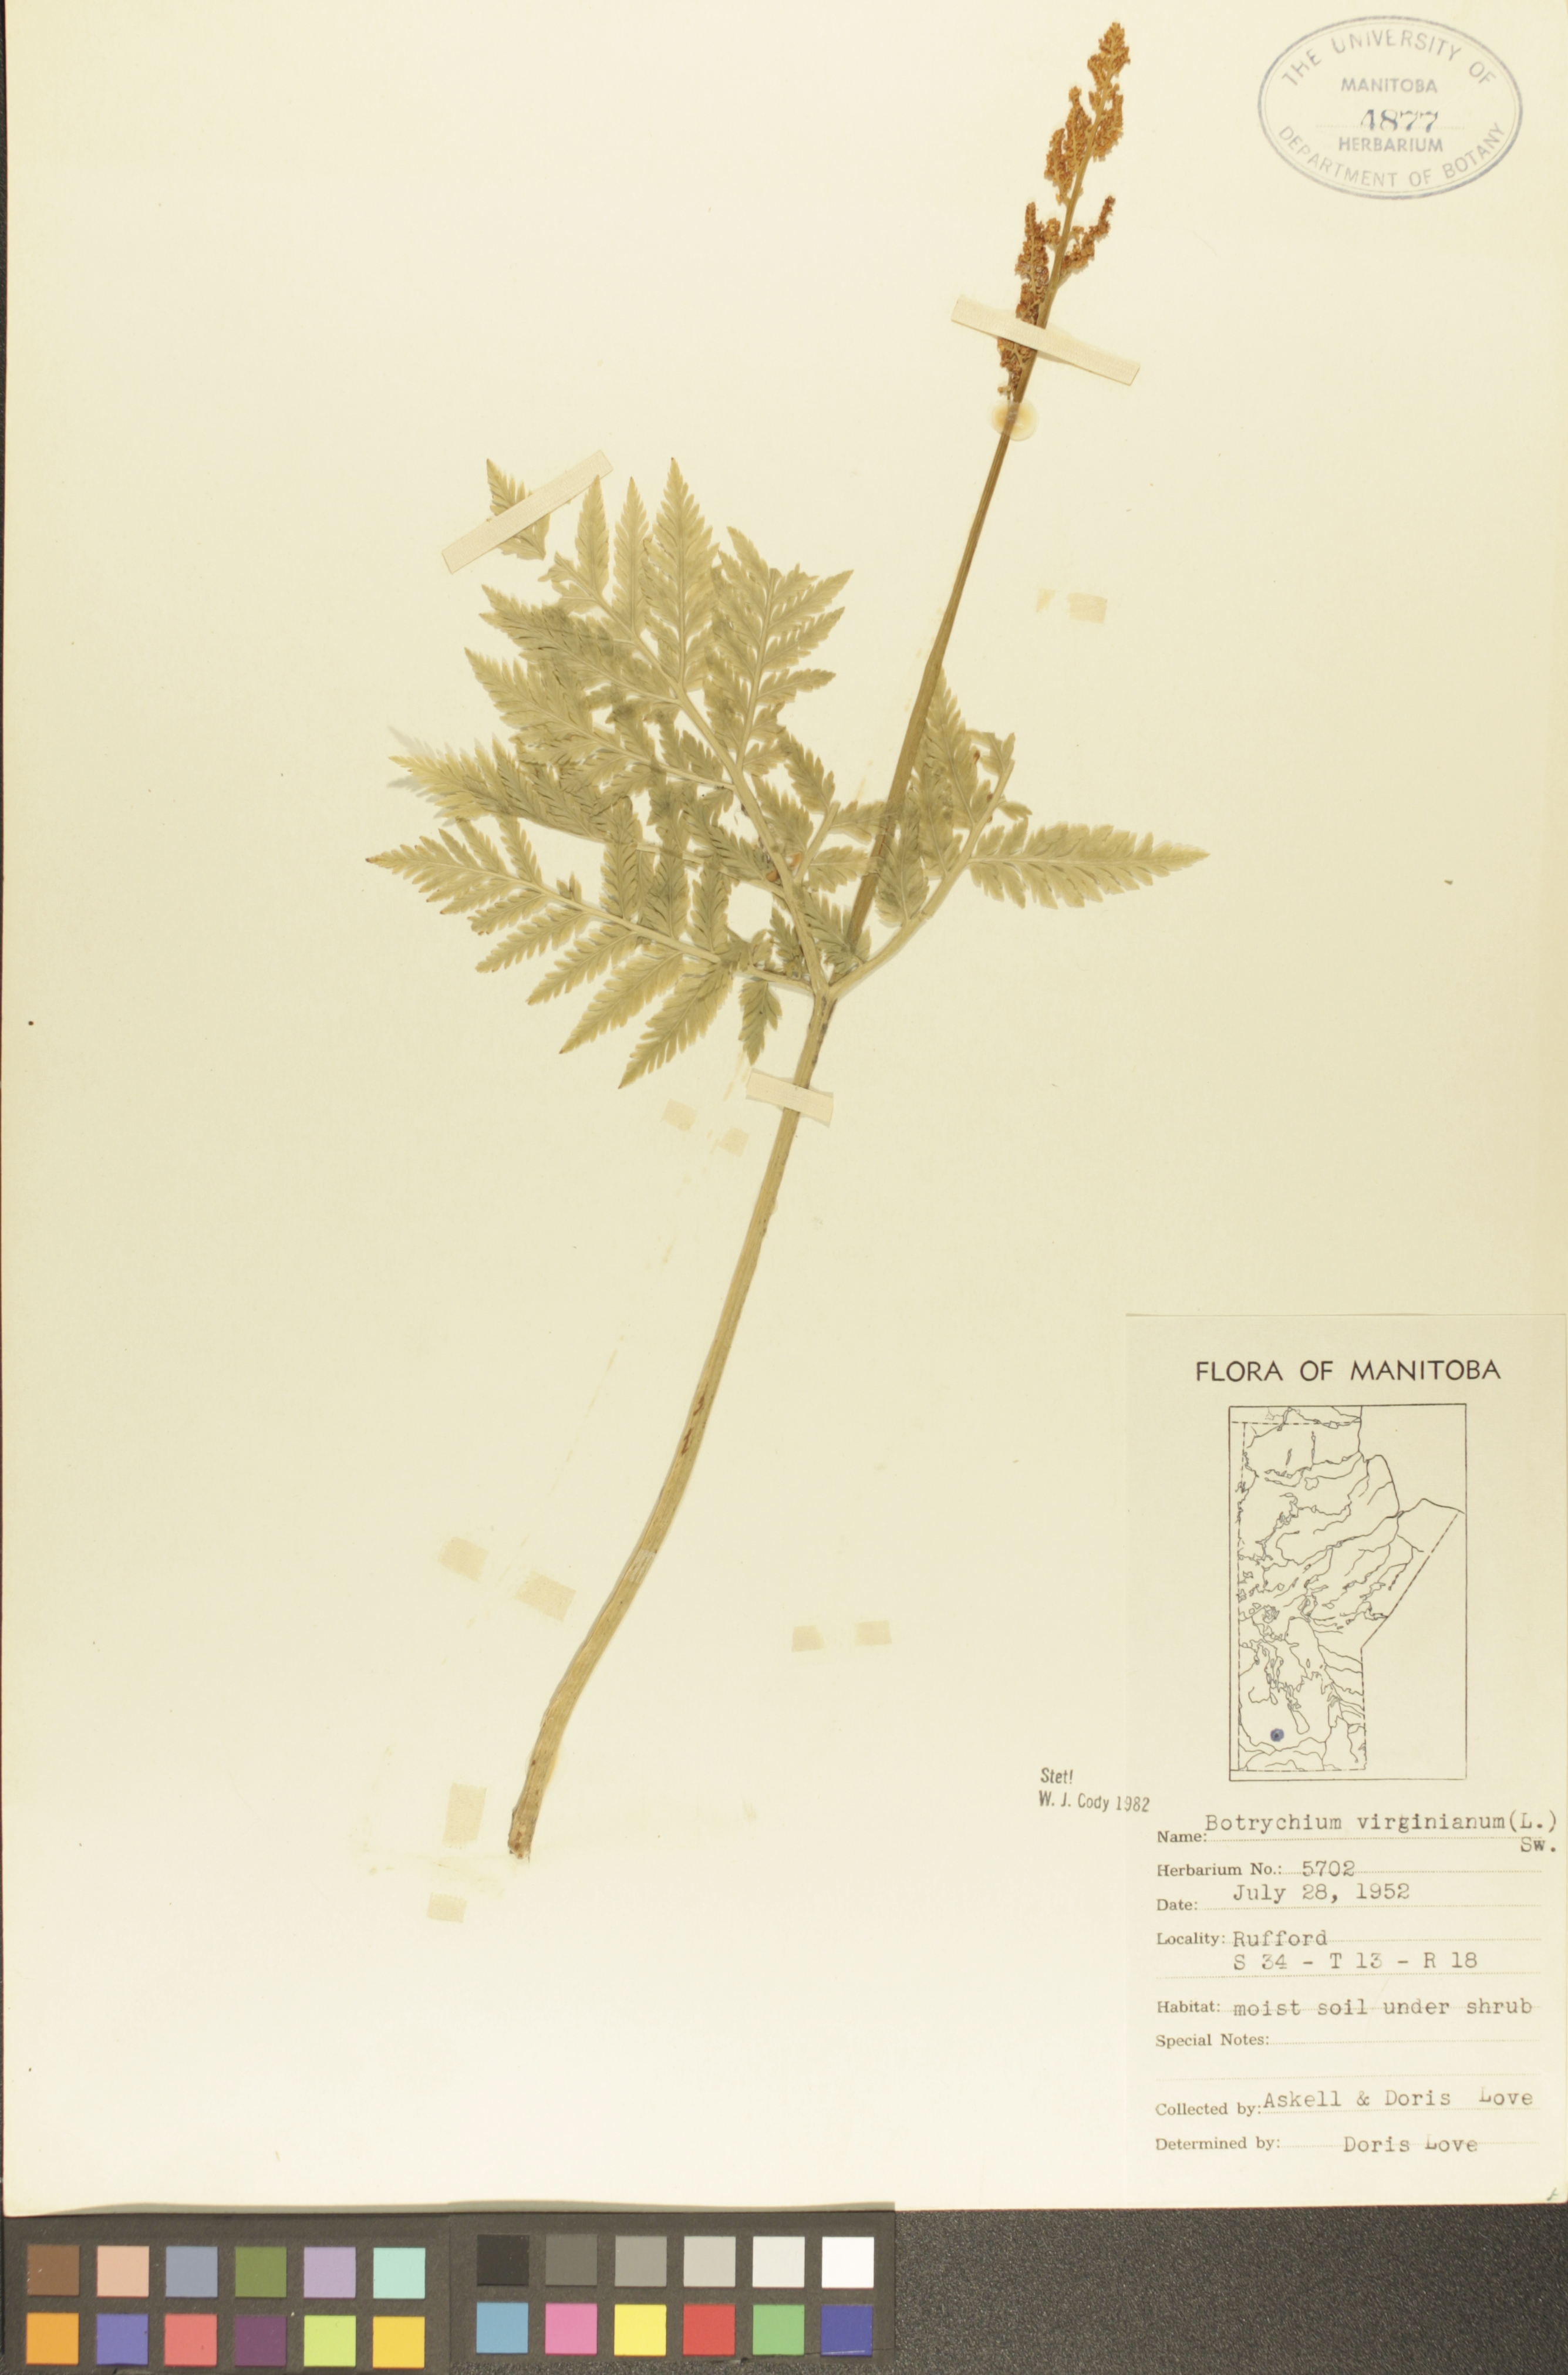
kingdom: Plantae
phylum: Tracheophyta
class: Polypodiopsida
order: Ophioglossales
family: Ophioglossaceae
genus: Botrypus
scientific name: Botrypus virginianus
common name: Common grapefern
